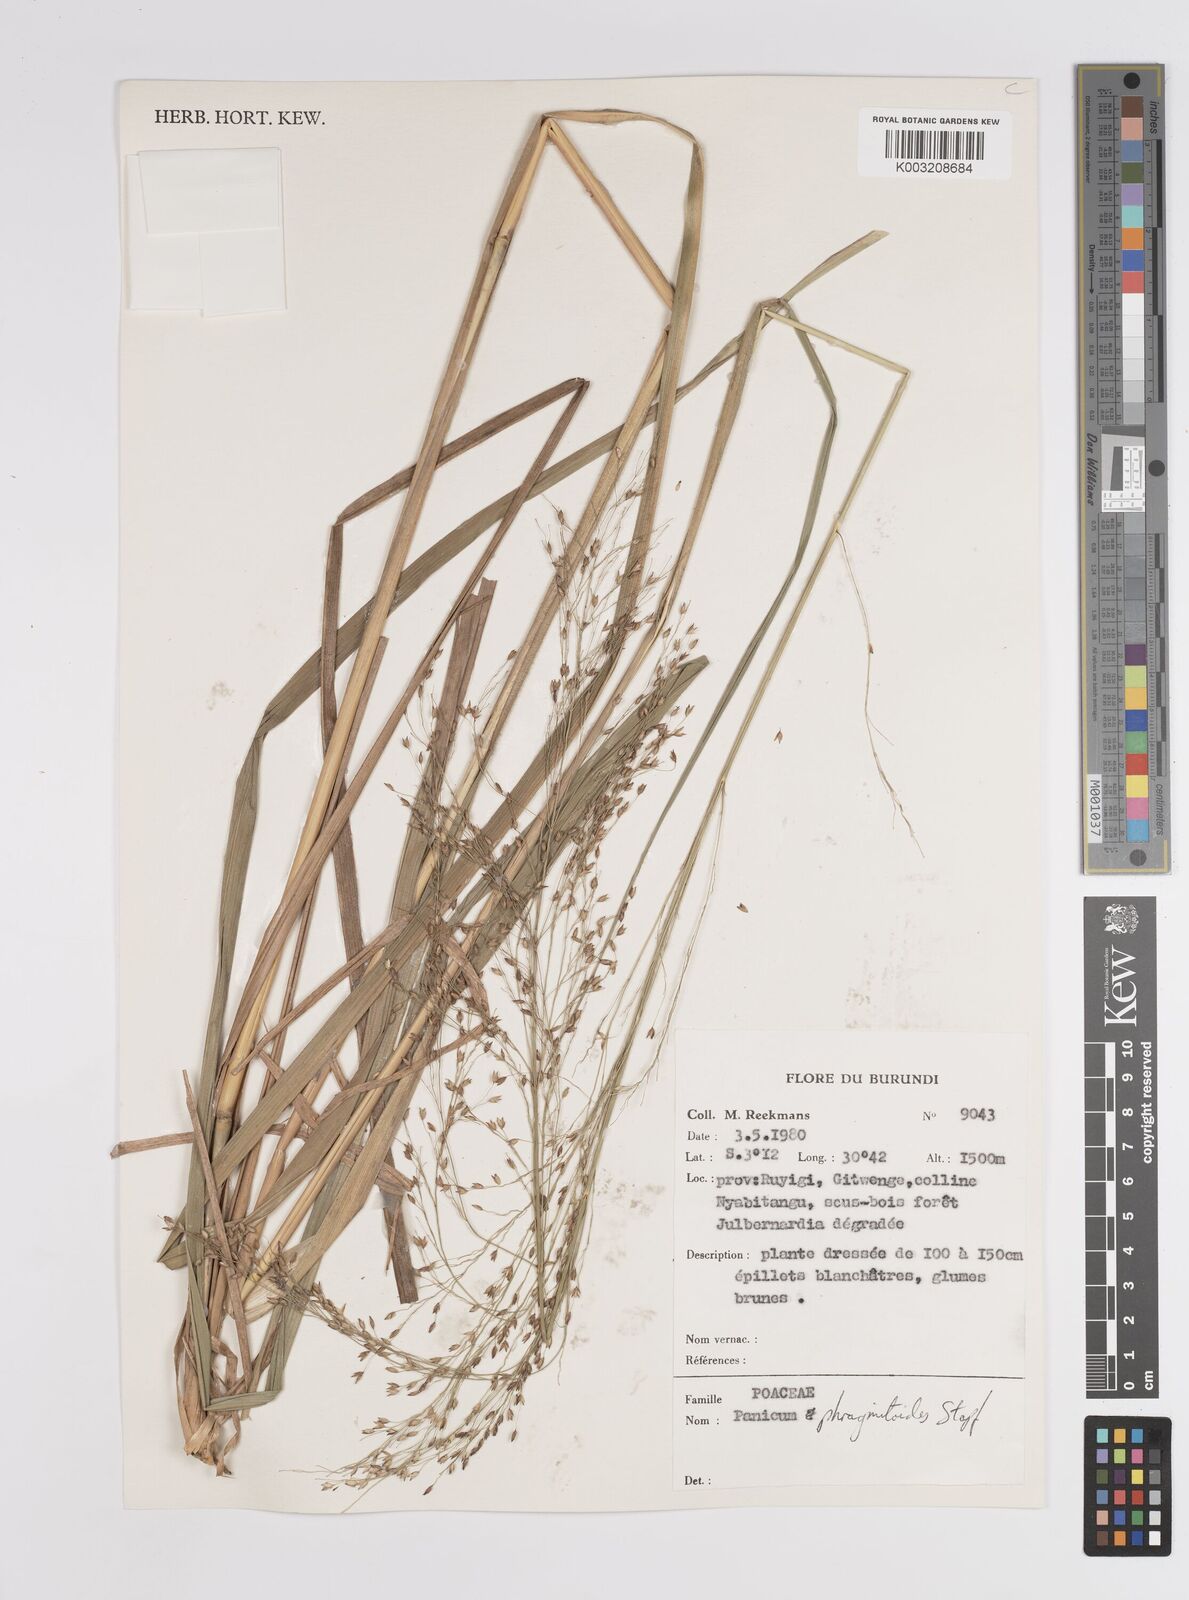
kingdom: Plantae
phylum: Tracheophyta
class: Liliopsida
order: Poales
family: Poaceae
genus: Panicum
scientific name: Panicum phragmitoides
